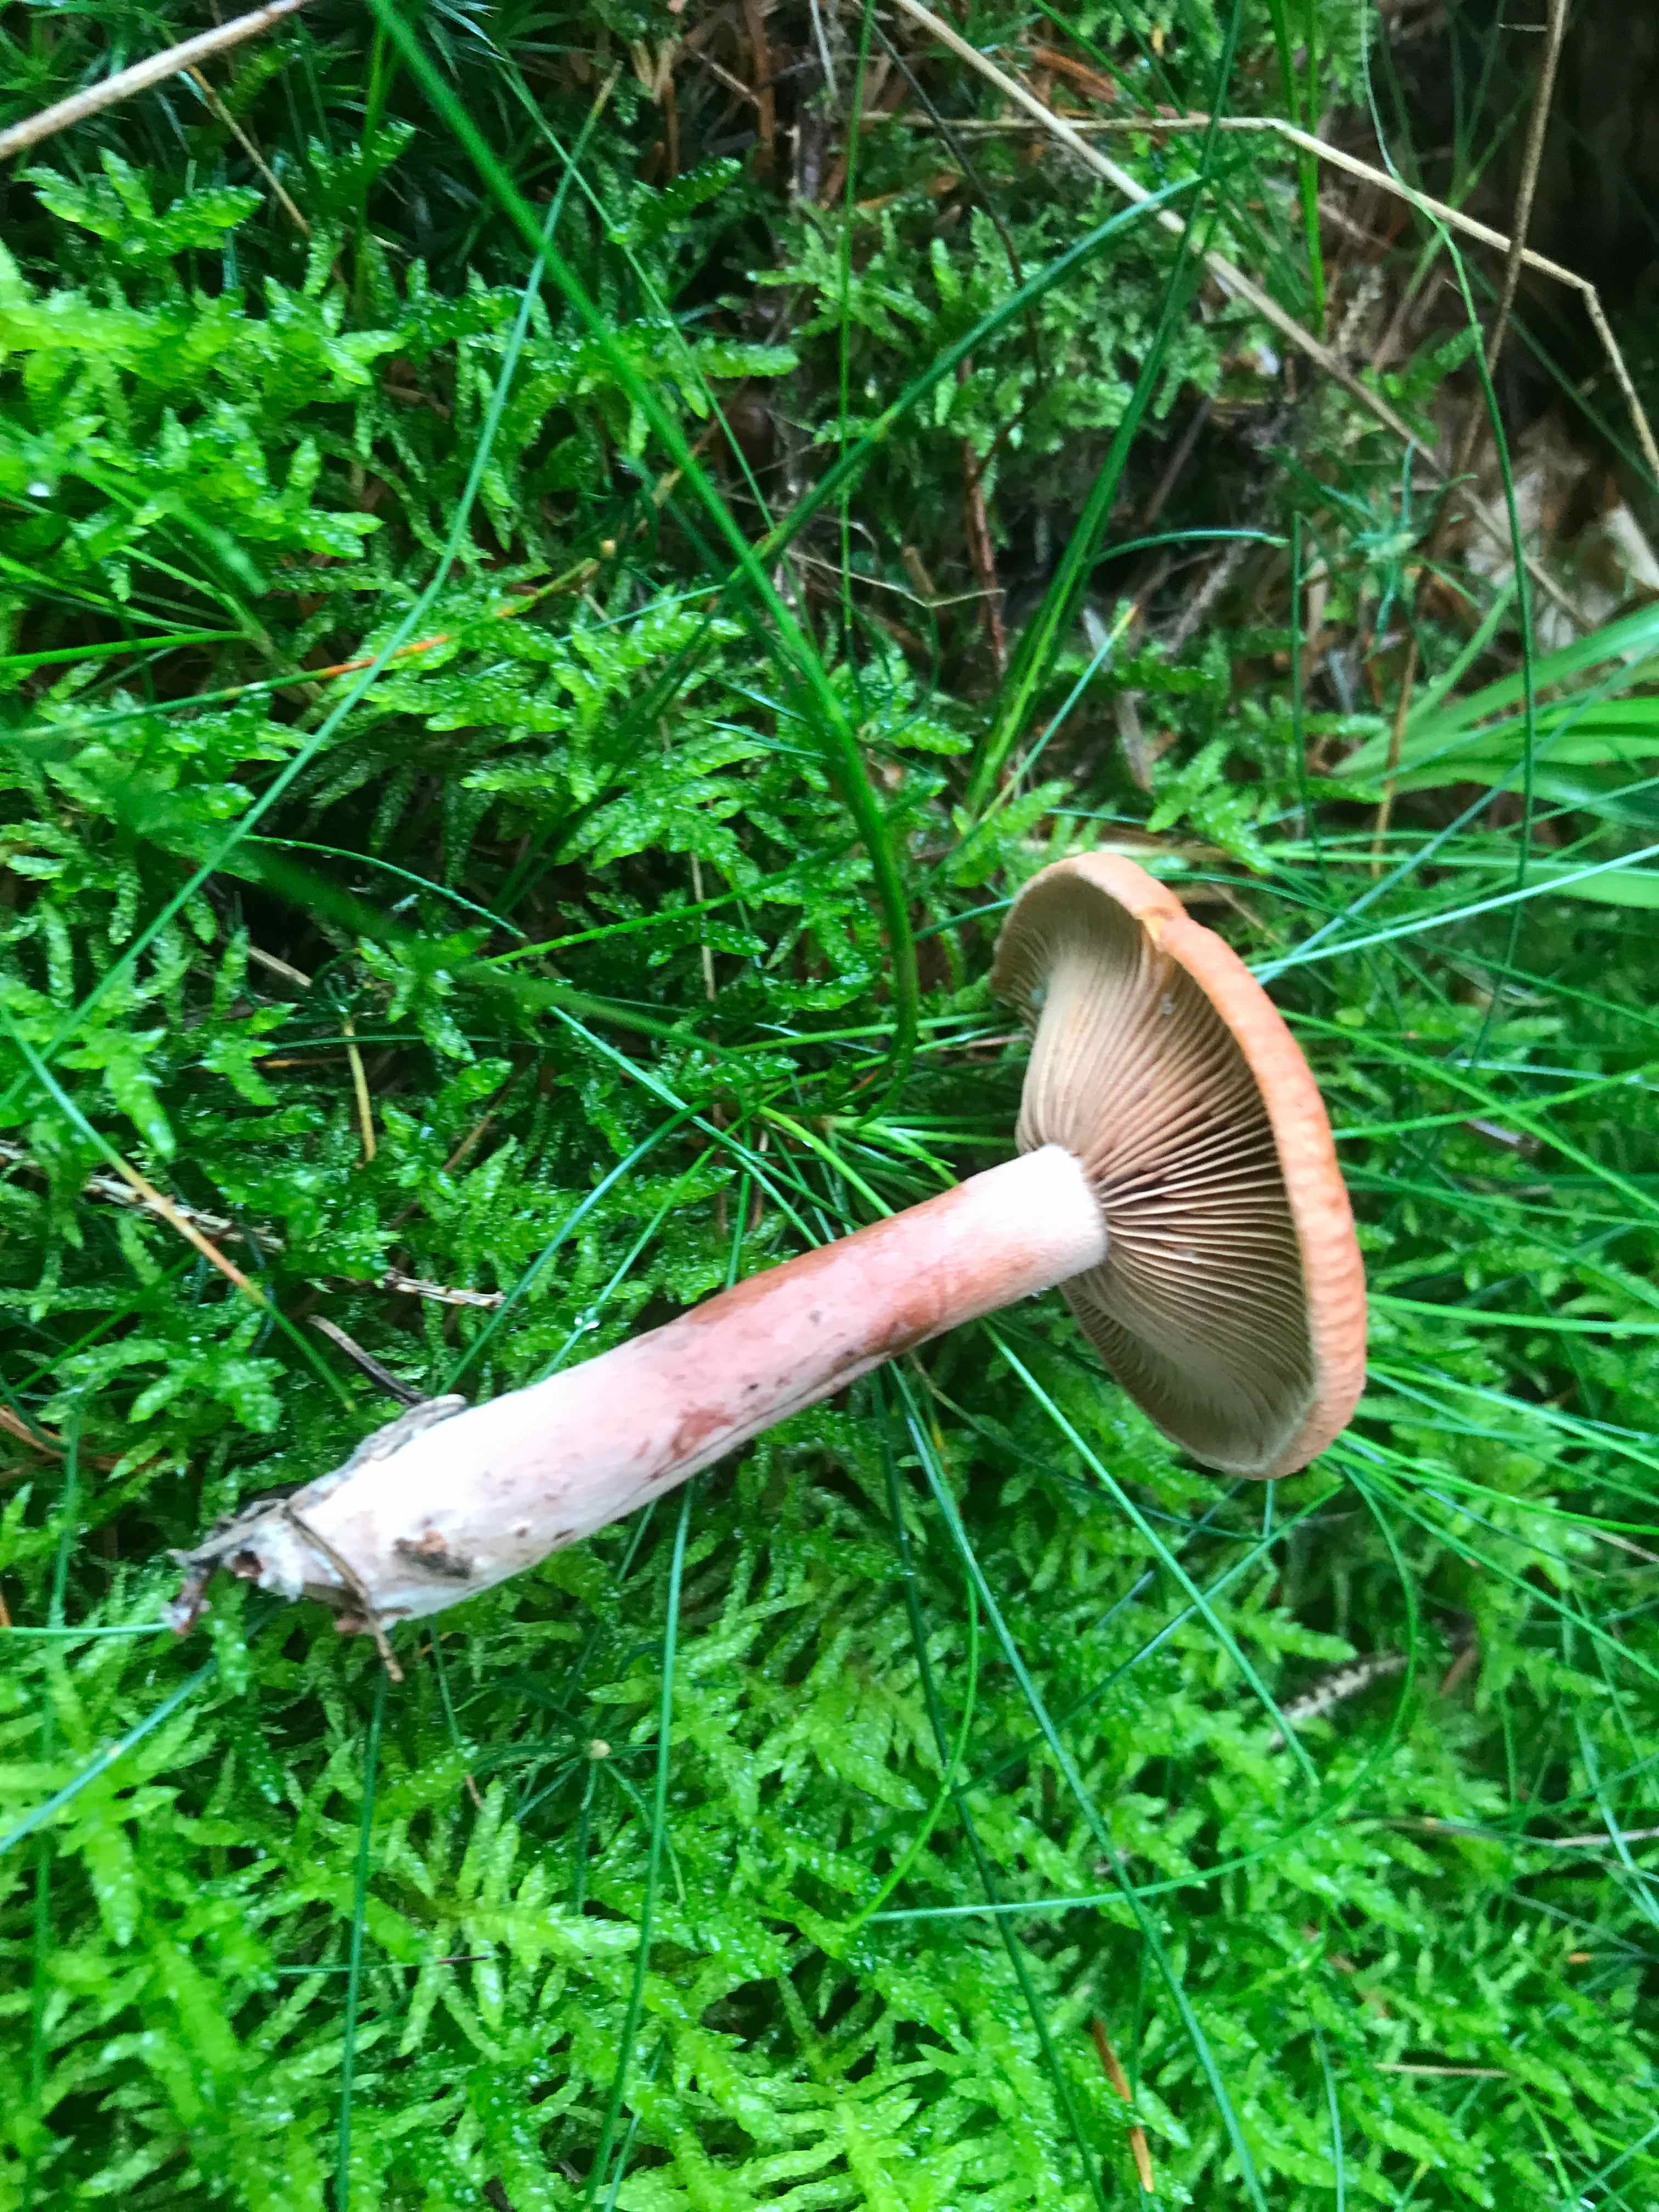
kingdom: Fungi
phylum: Basidiomycota
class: Agaricomycetes
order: Russulales
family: Russulaceae
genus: Lactarius
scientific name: Lactarius camphoratus
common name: kamfer-mælkehat
